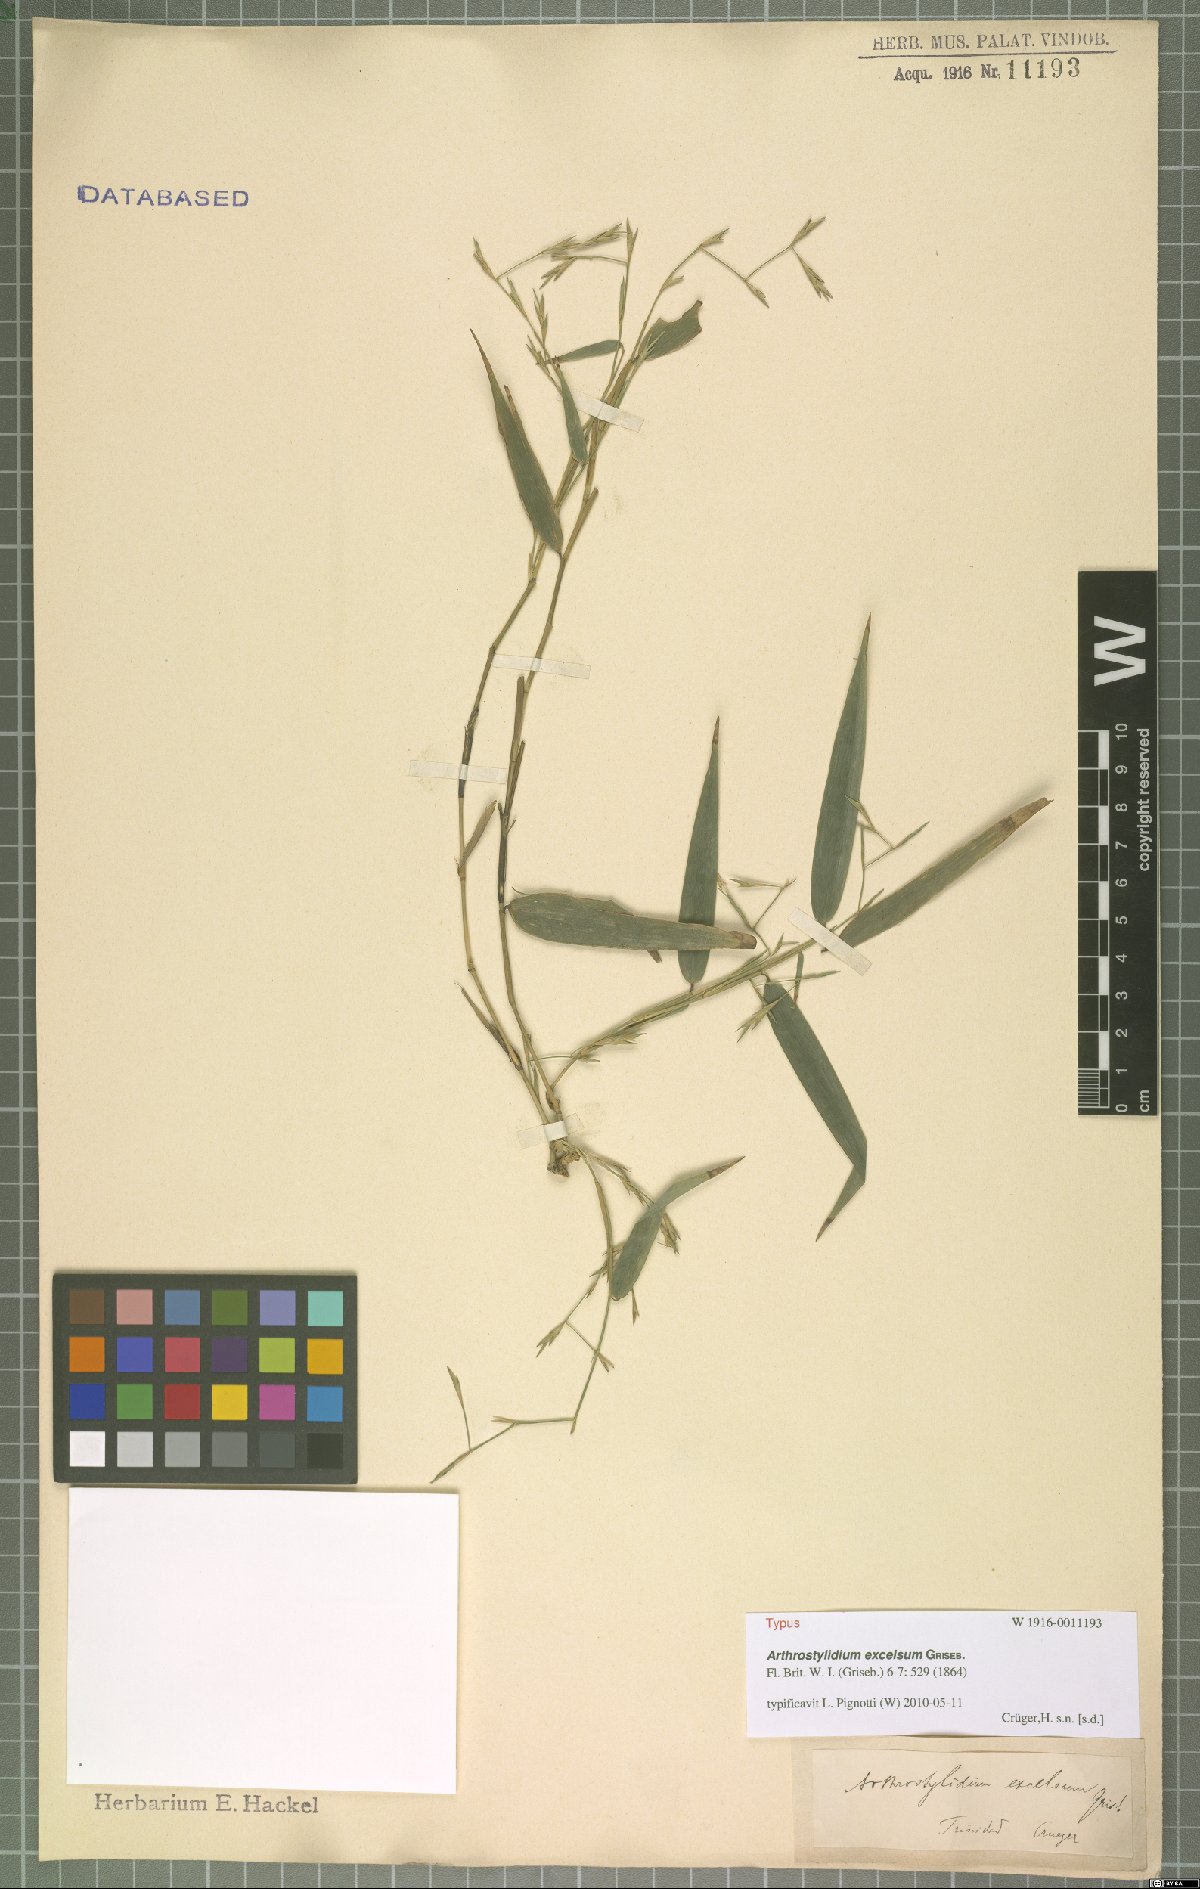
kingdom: Plantae
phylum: Tracheophyta
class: Liliopsida
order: Poales
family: Poaceae
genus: Arthrostylidium
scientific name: Arthrostylidium excelsum
